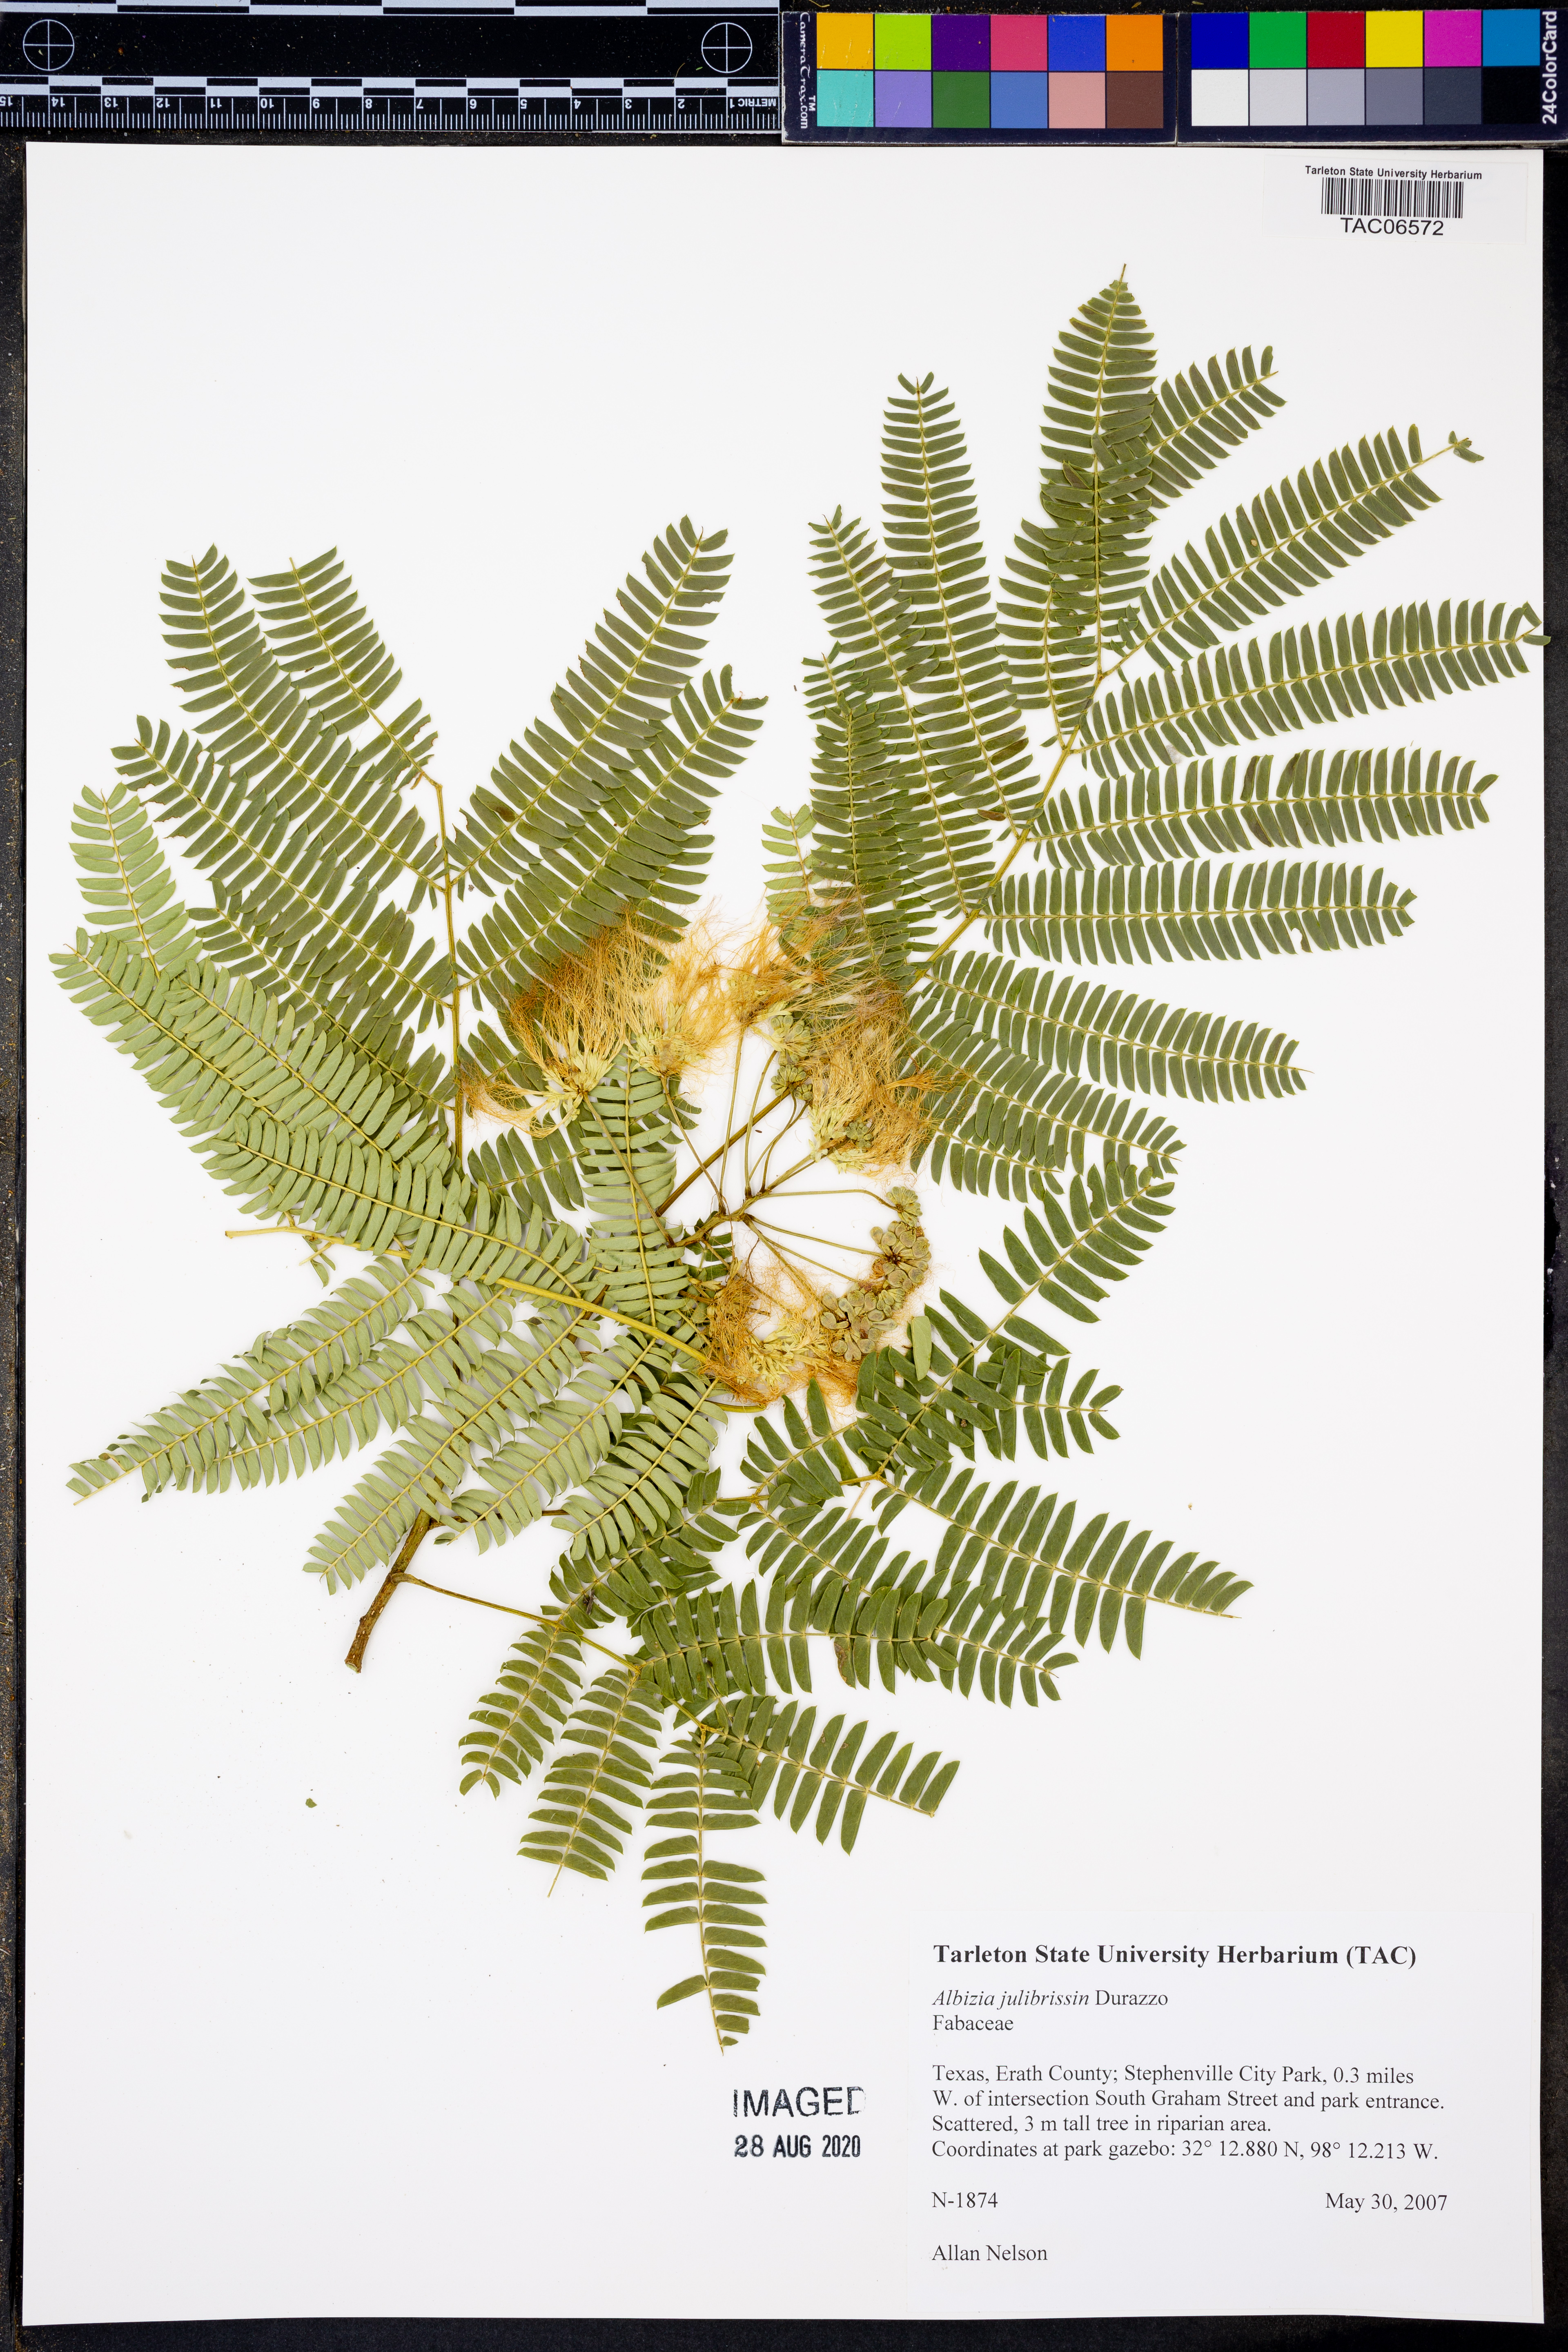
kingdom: Plantae
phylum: Tracheophyta
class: Magnoliopsida
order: Fabales
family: Fabaceae
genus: Albizia
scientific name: Albizia julibrissin
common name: Silktree
